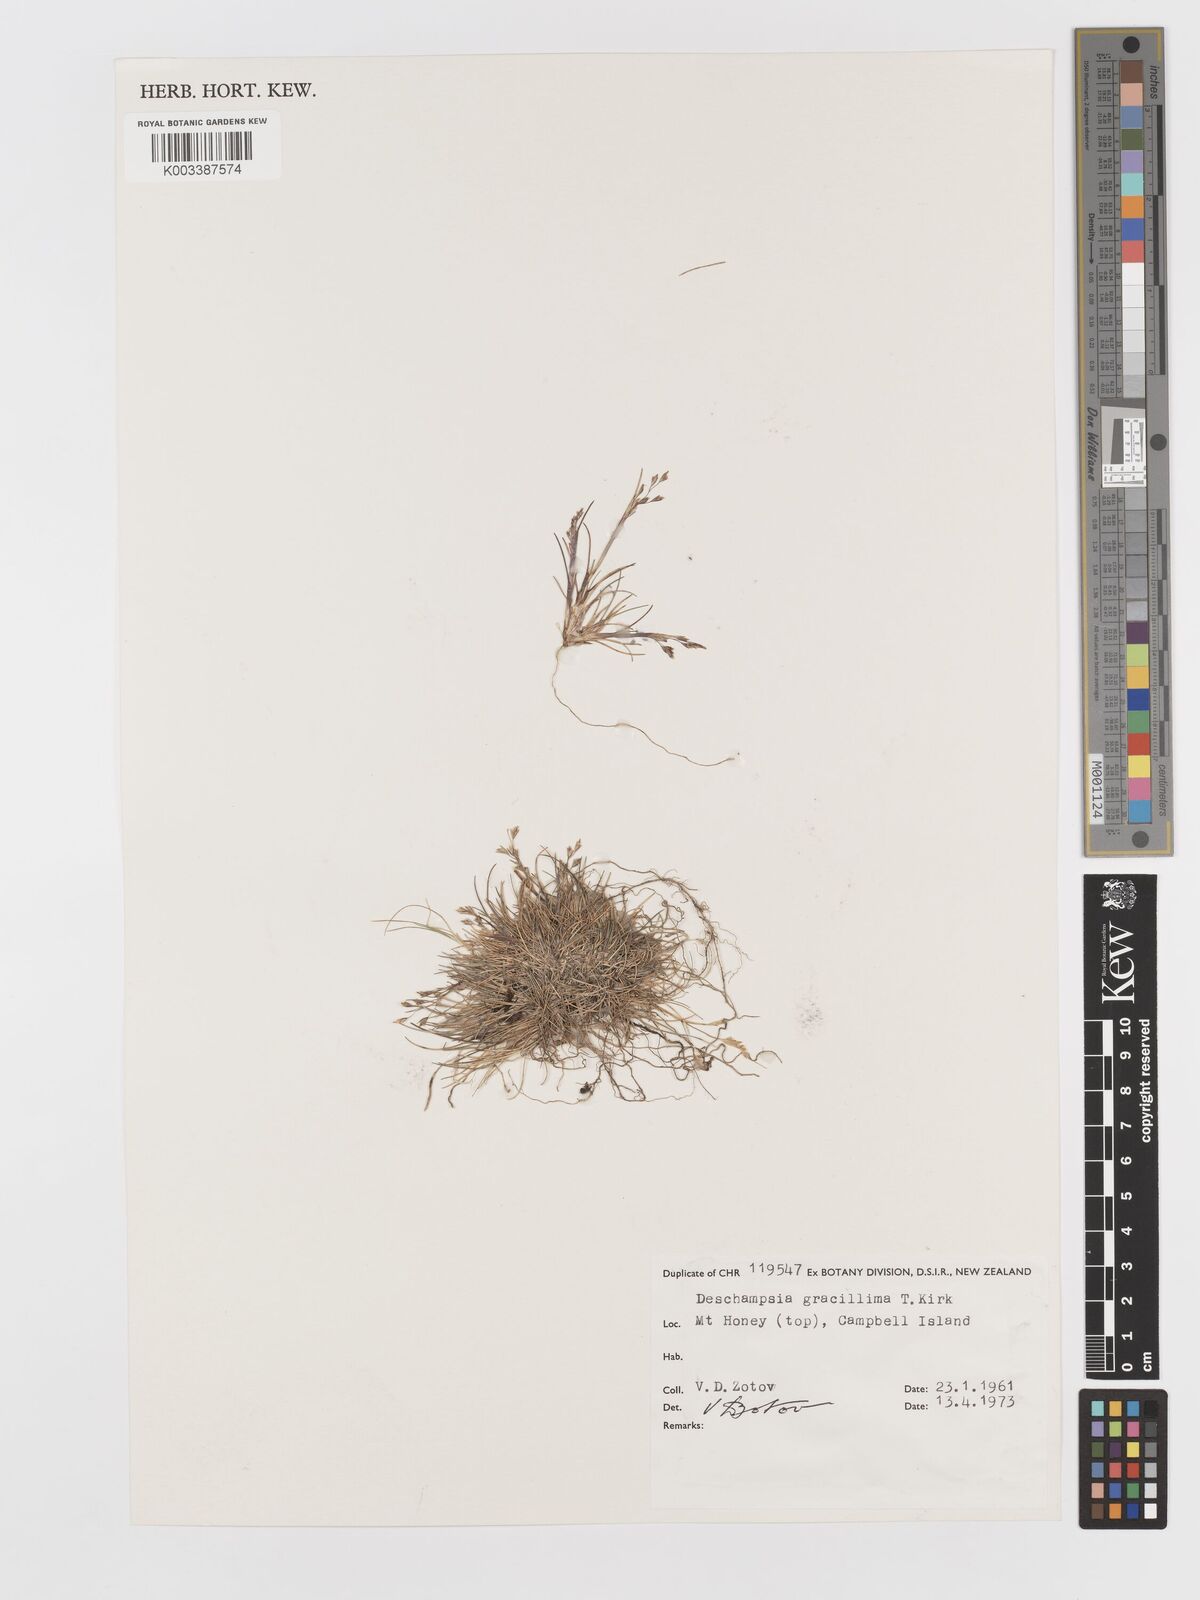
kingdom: Plantae
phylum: Tracheophyta
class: Liliopsida
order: Poales
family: Poaceae
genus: Deschampsia
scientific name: Deschampsia gracillima
